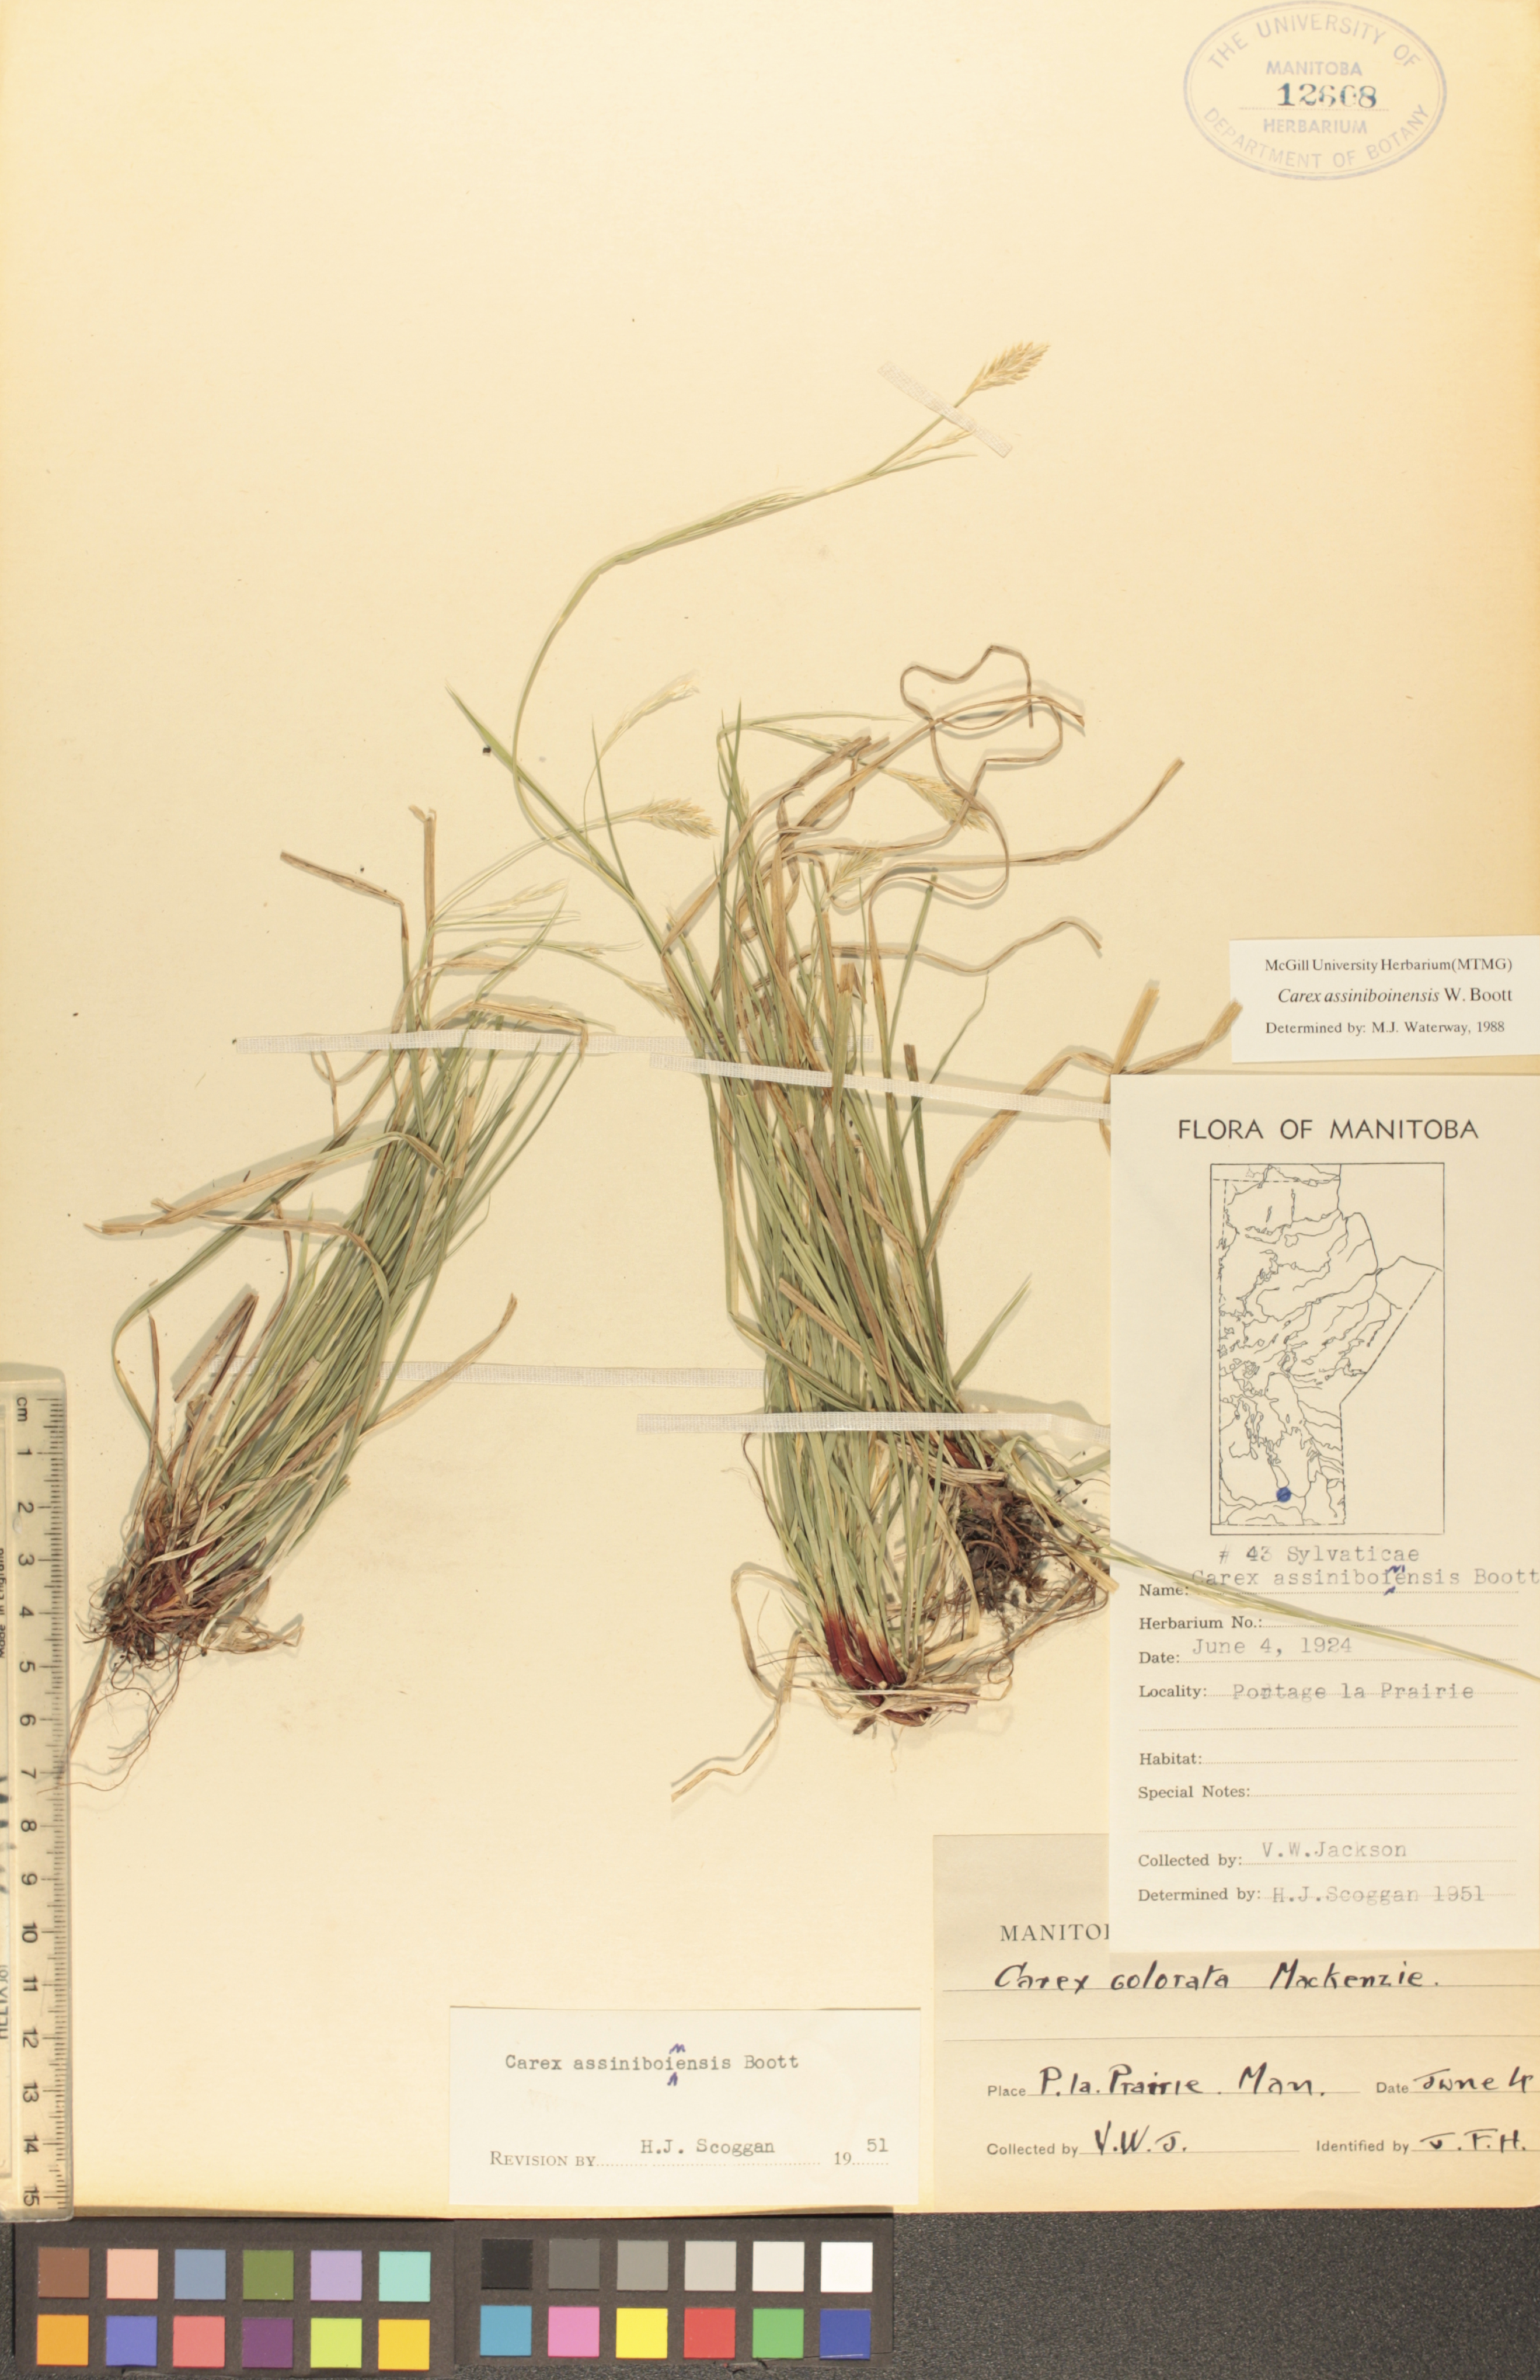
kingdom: Plantae
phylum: Tracheophyta
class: Liliopsida
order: Poales
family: Cyperaceae
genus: Carex
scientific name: Carex assiniboinensis
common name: Assiniboia sedge
